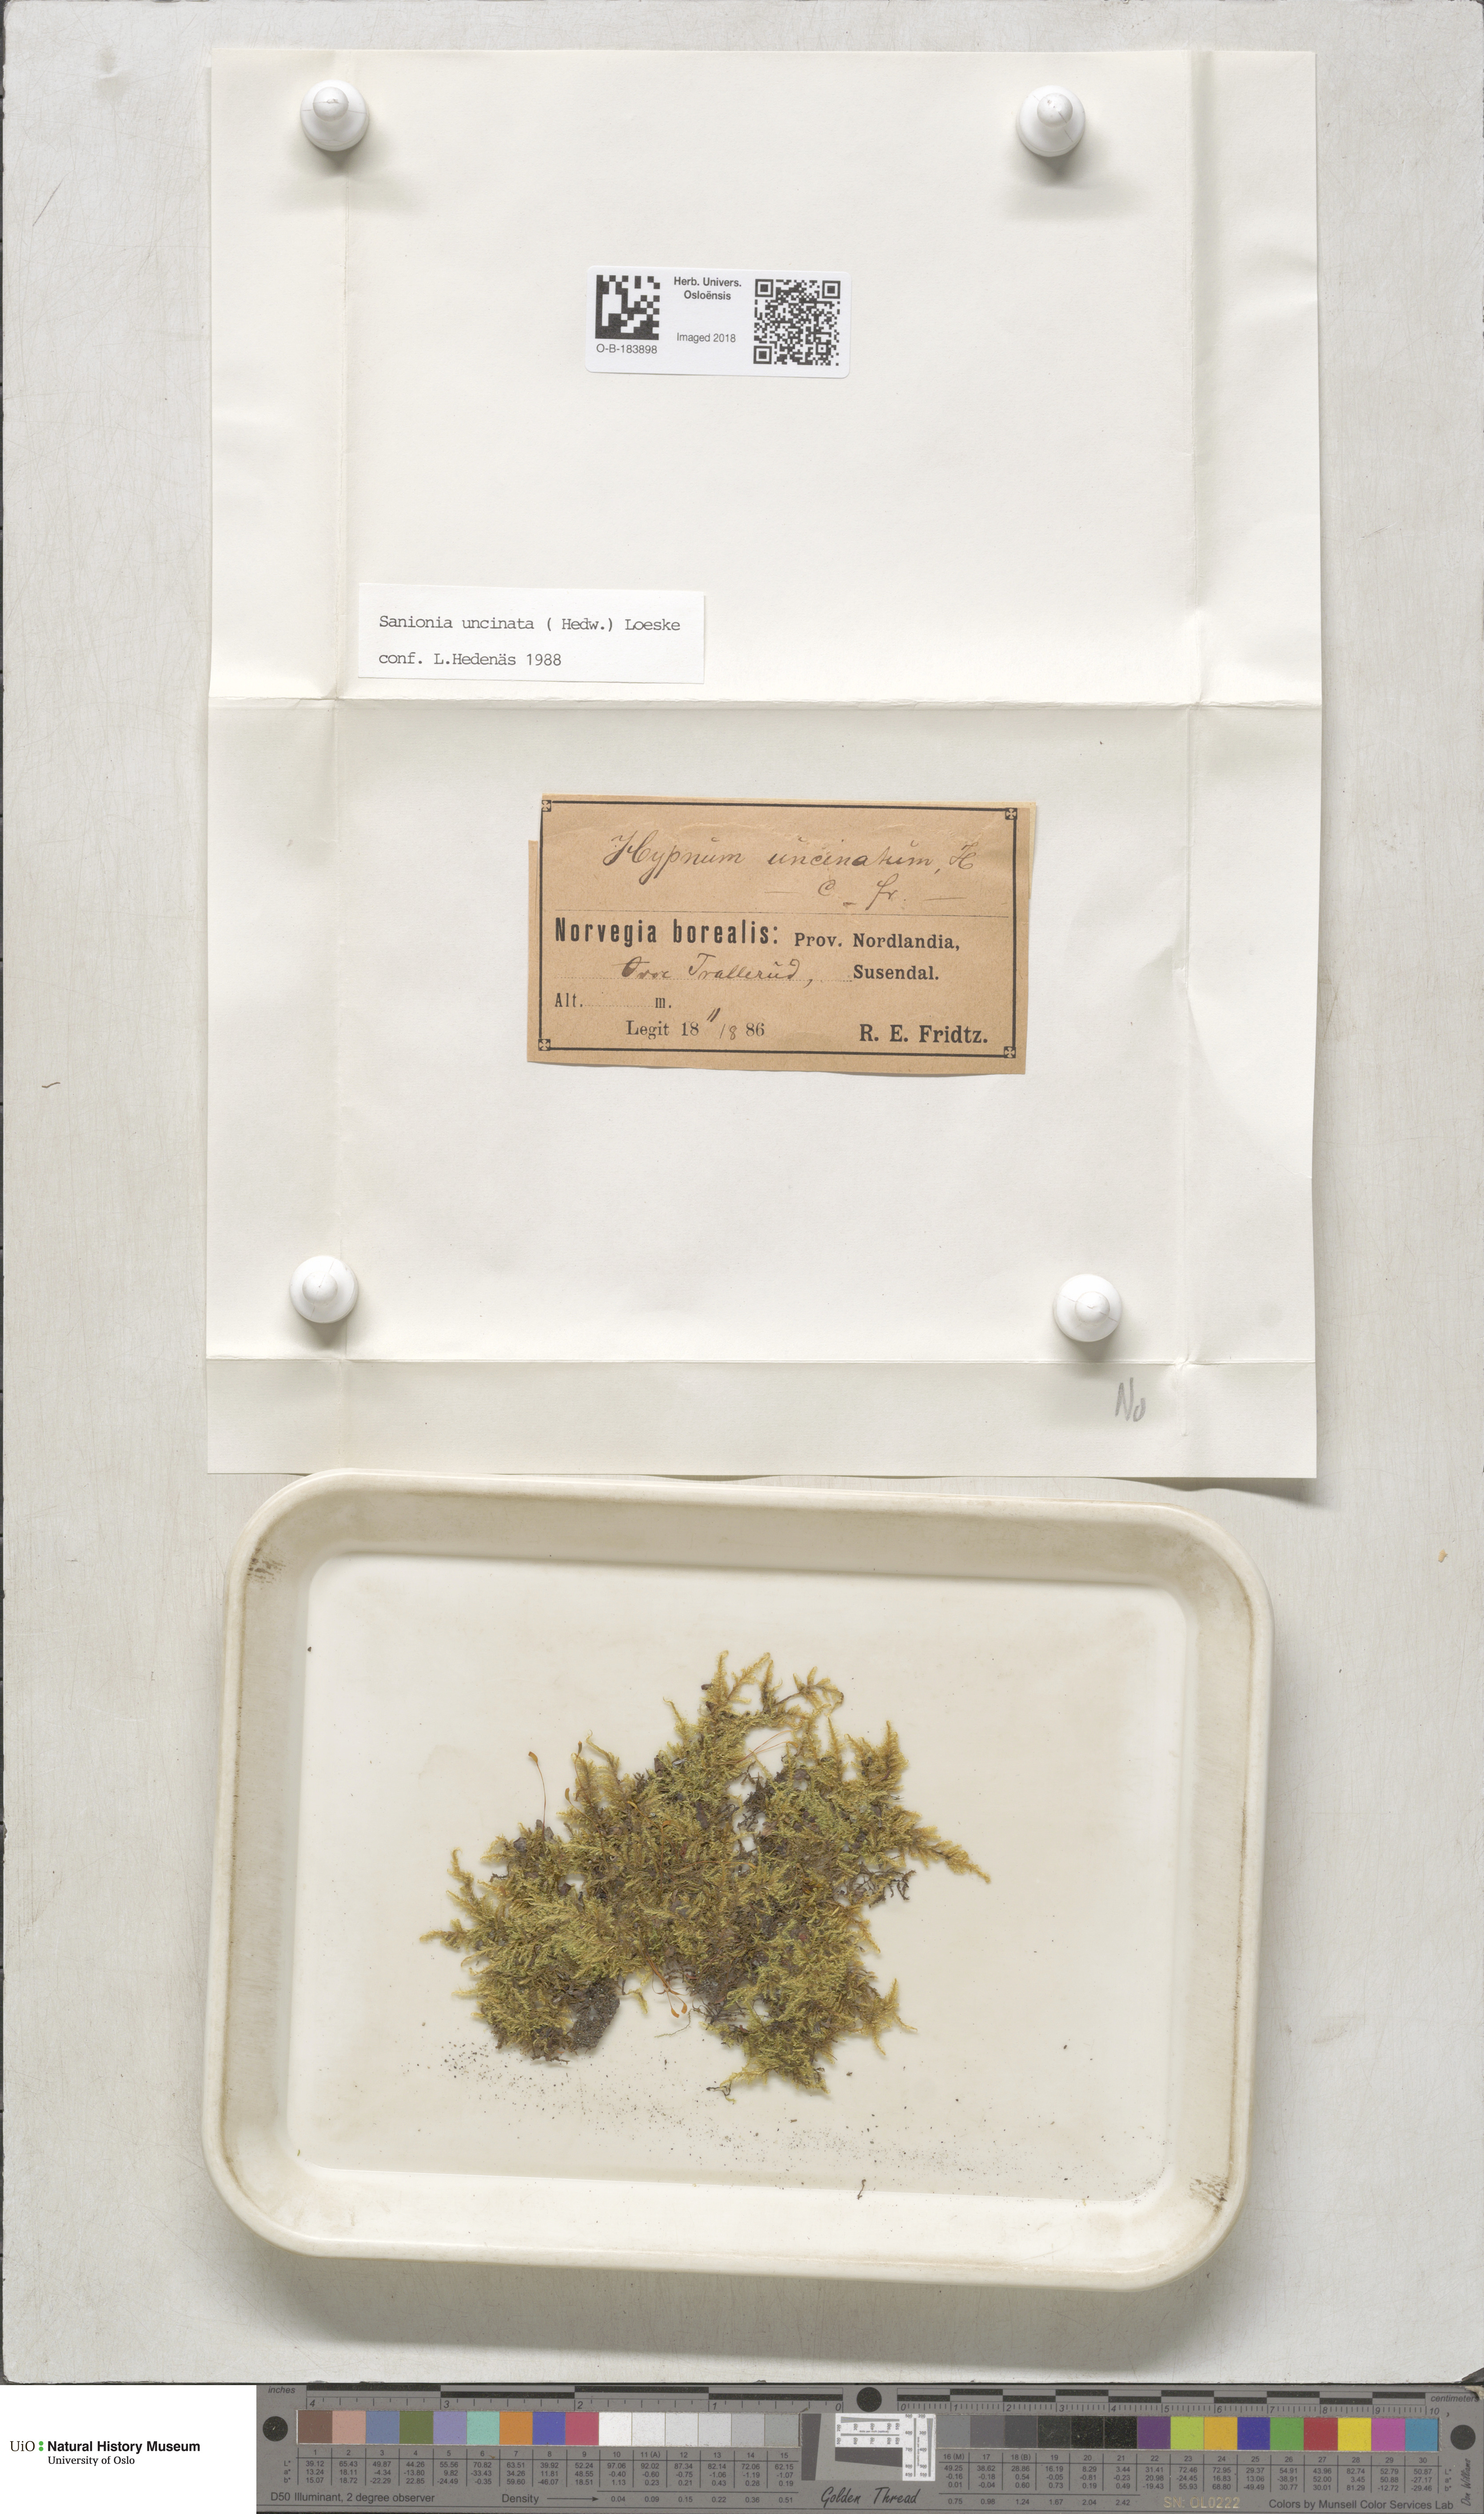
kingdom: Plantae
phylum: Bryophyta
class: Bryopsida
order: Hypnales
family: Scorpidiaceae
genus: Sanionia
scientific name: Sanionia uncinata
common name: Sickle moss
